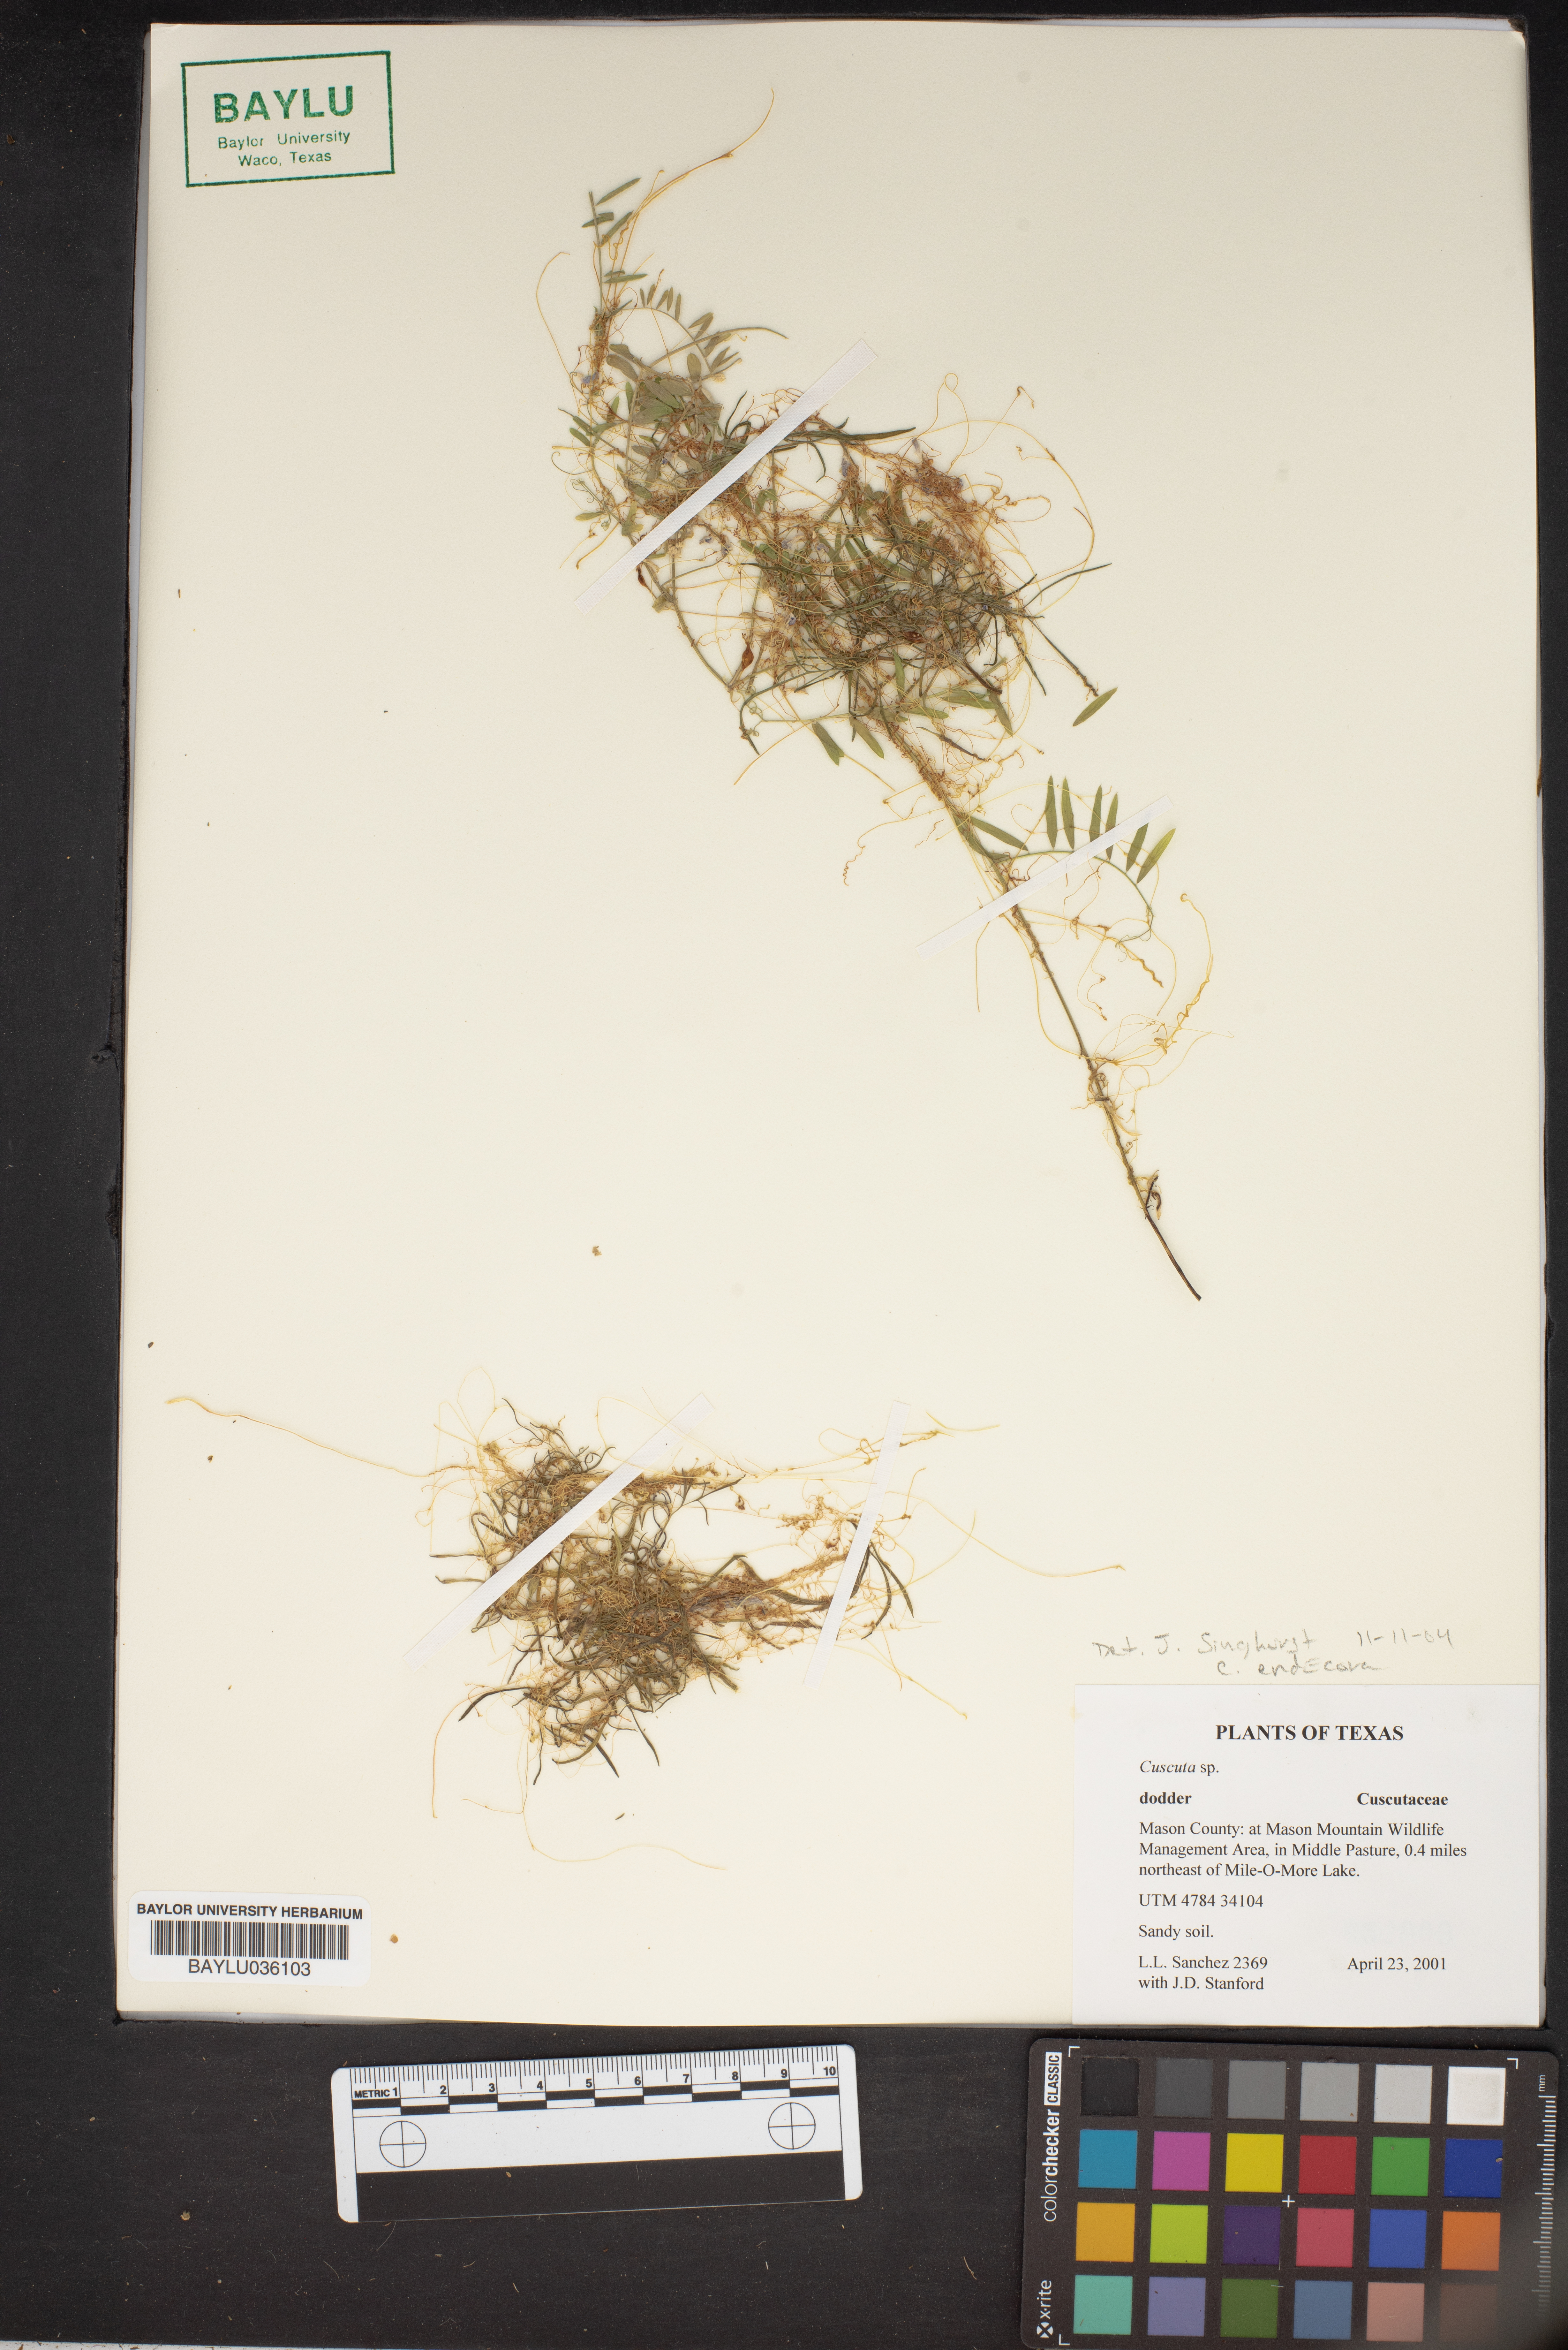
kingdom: Plantae
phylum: Tracheophyta
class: Magnoliopsida
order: Solanales
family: Convolvulaceae
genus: Cuscuta
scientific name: Cuscuta
